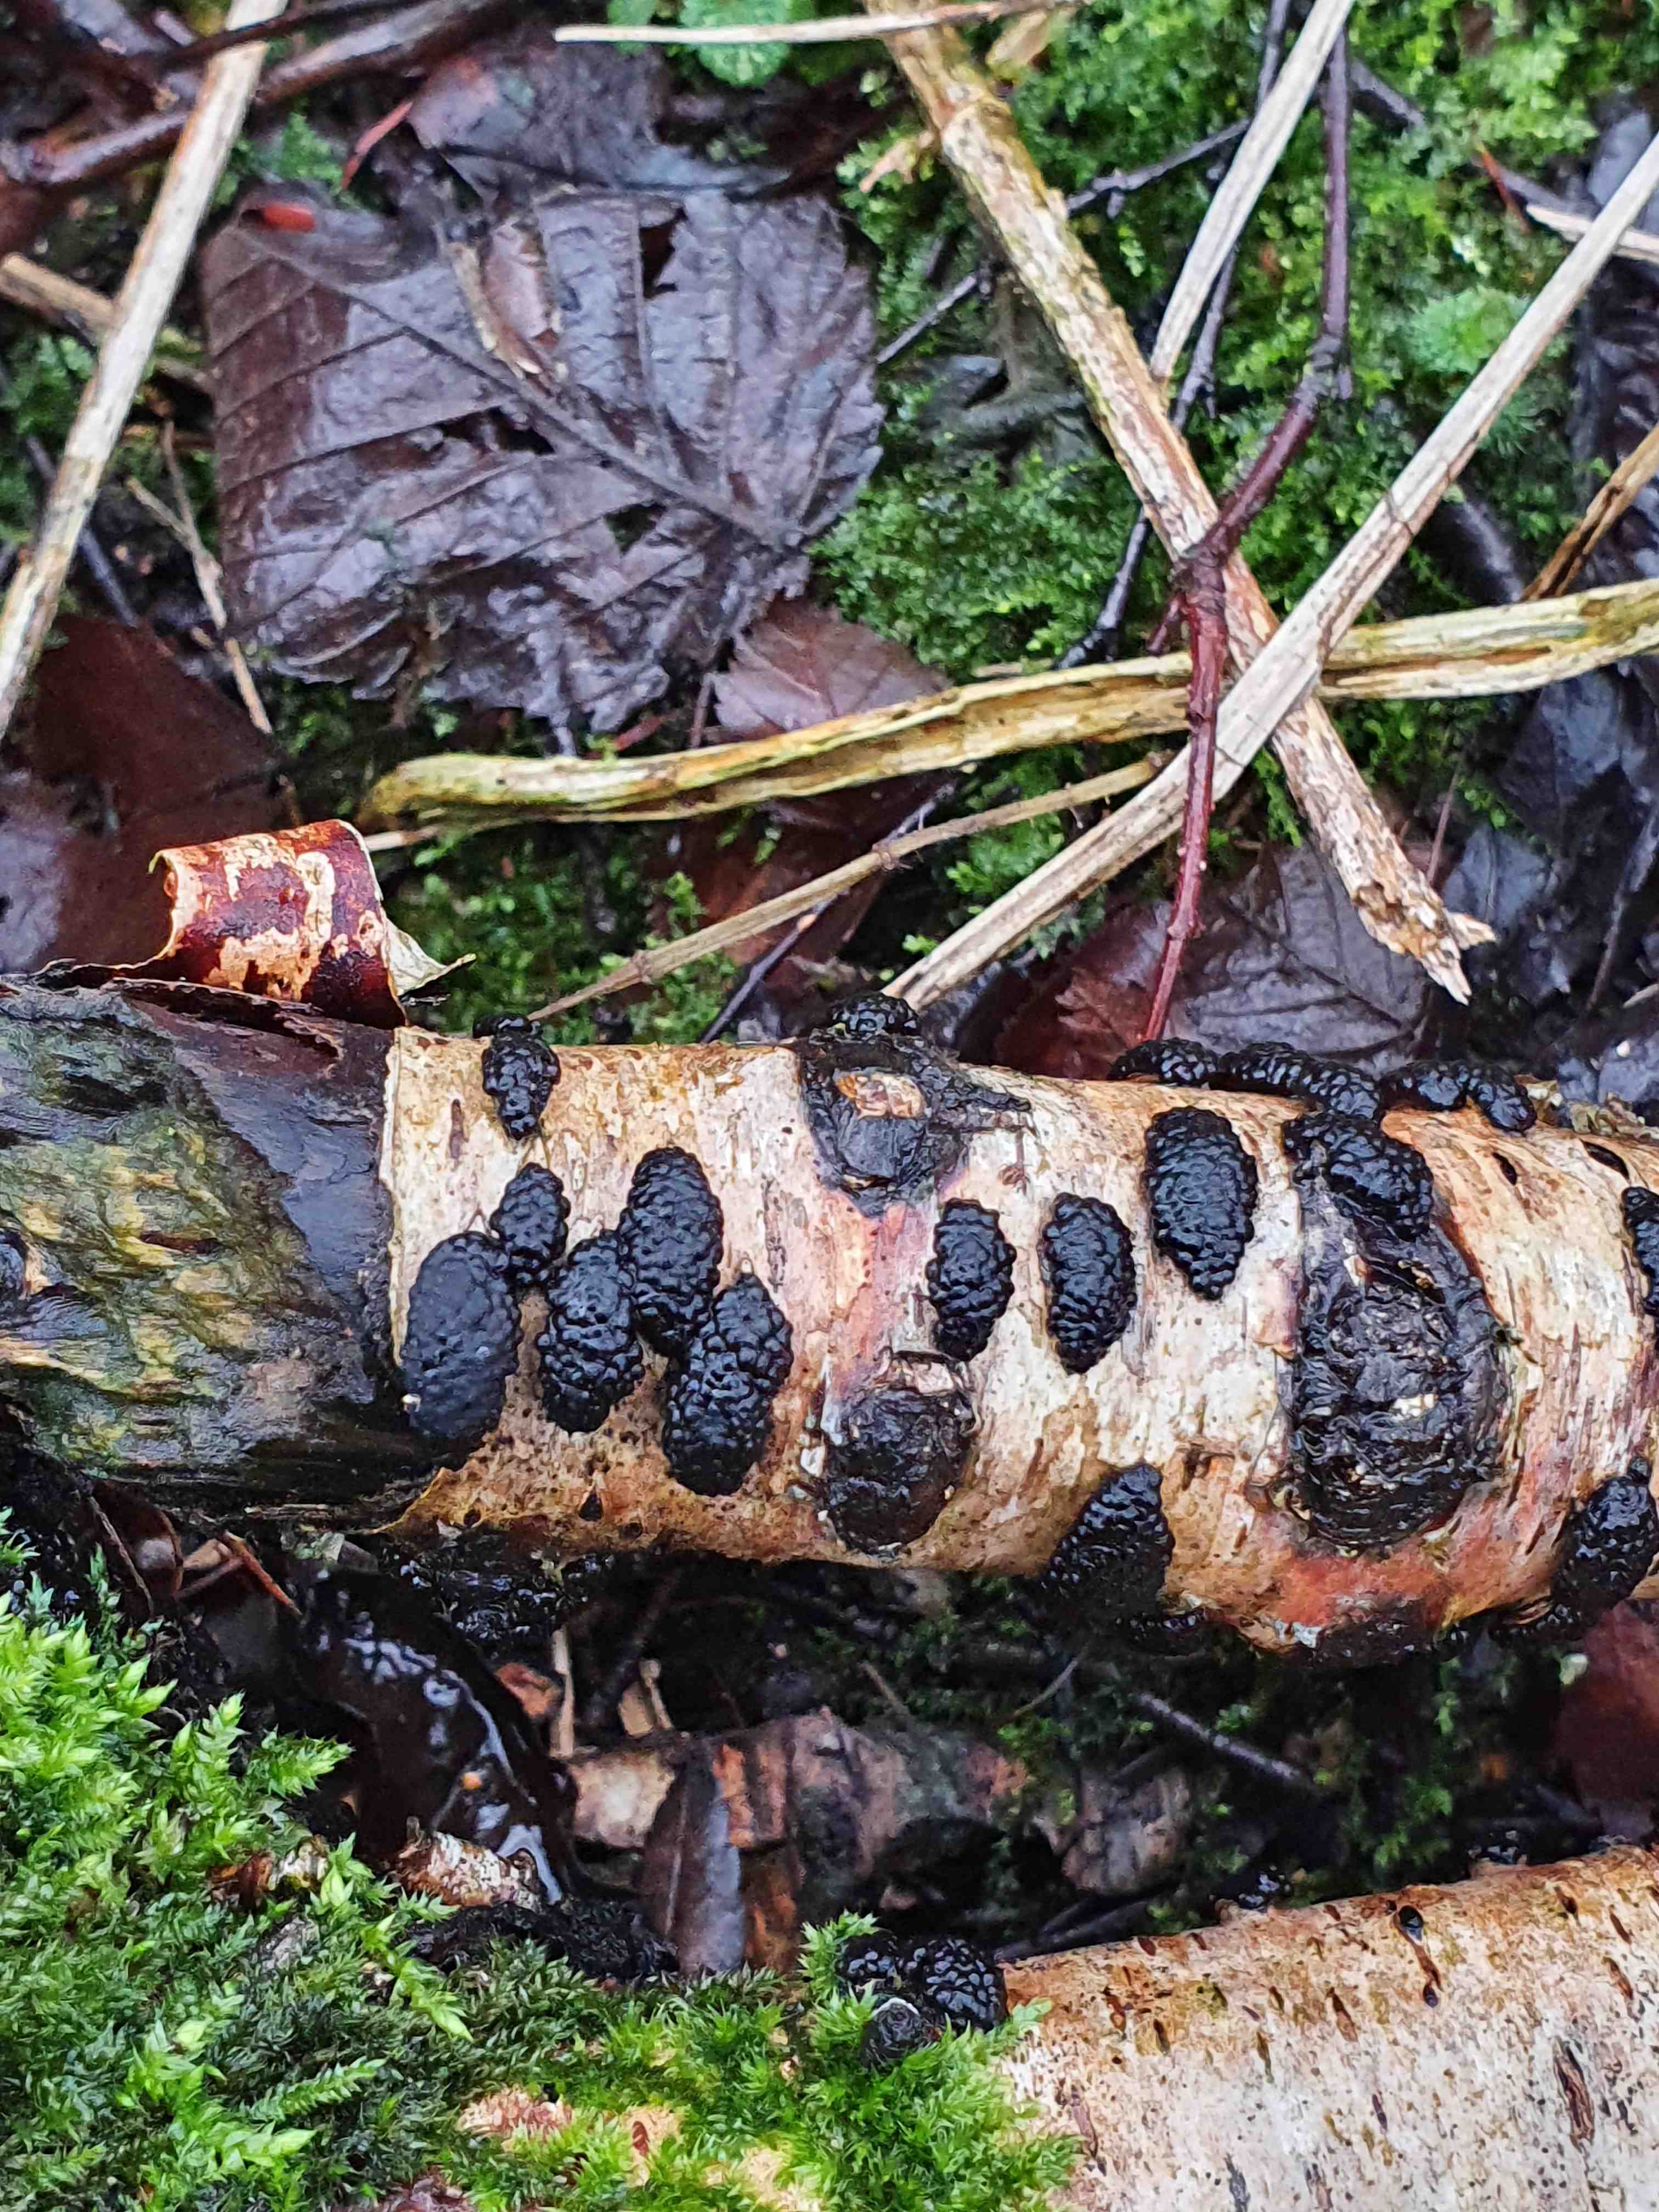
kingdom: Fungi
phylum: Ascomycota
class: Sordariomycetes
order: Xylariales
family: Hypoxylaceae
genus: Jackrogersella
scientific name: Jackrogersella multiformis
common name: foranderlig kulbær
